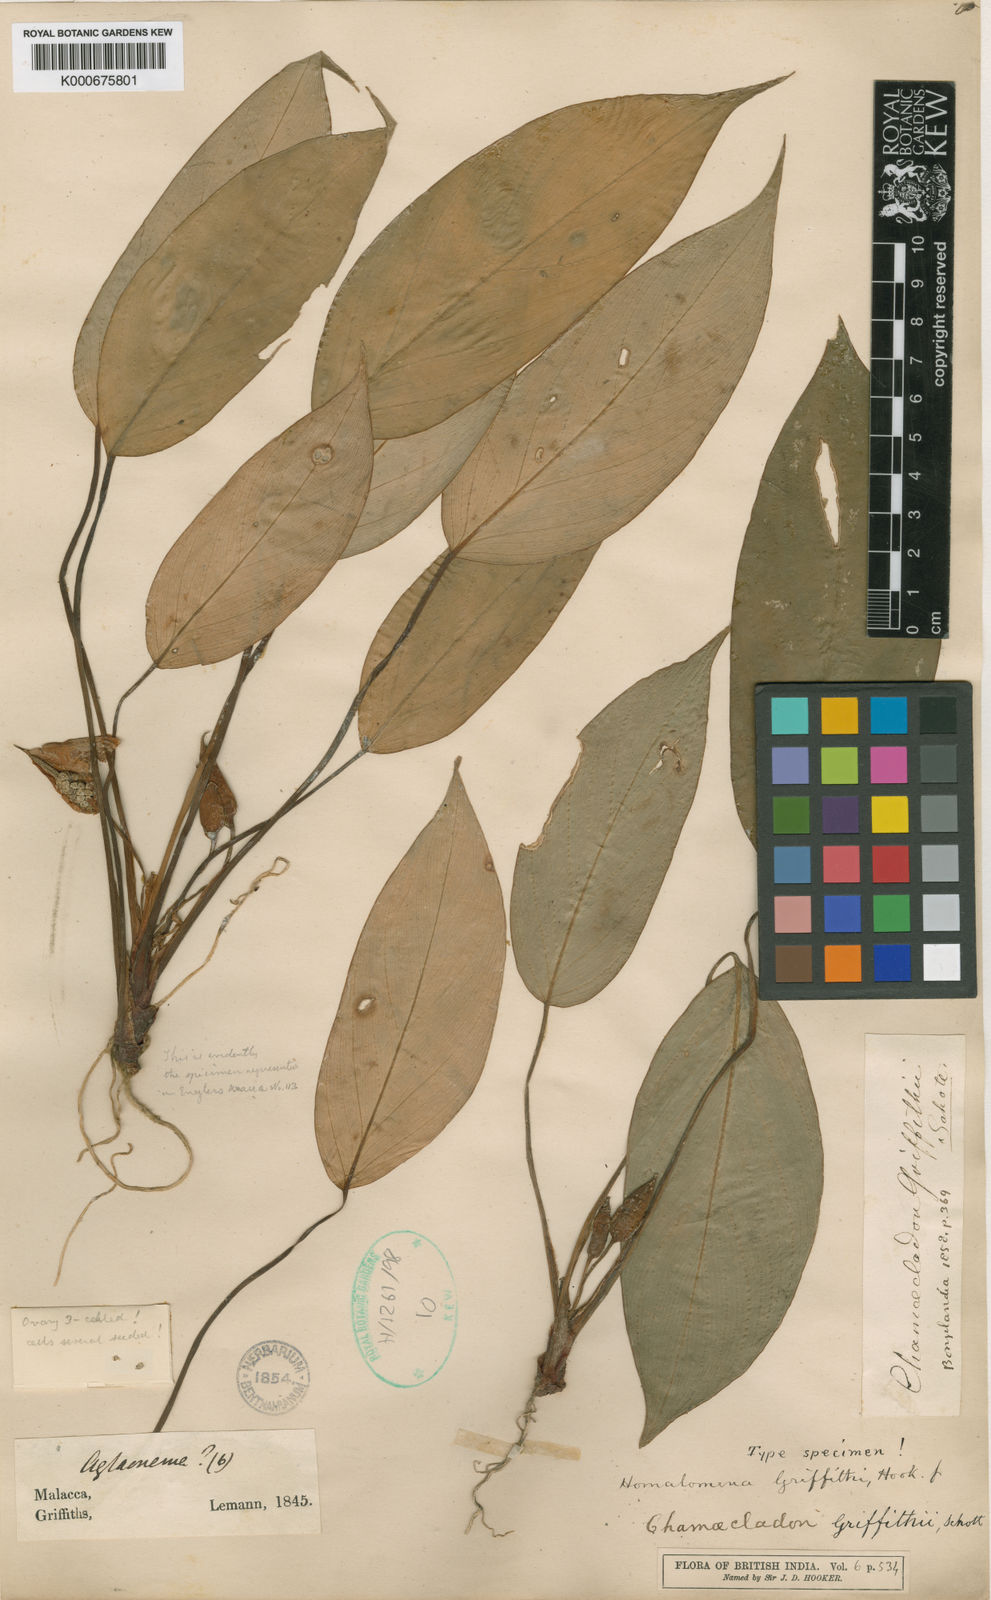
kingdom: Plantae
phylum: Tracheophyta
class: Liliopsida
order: Alismatales
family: Araceae
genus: Homalomena
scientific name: Homalomena griffithii
